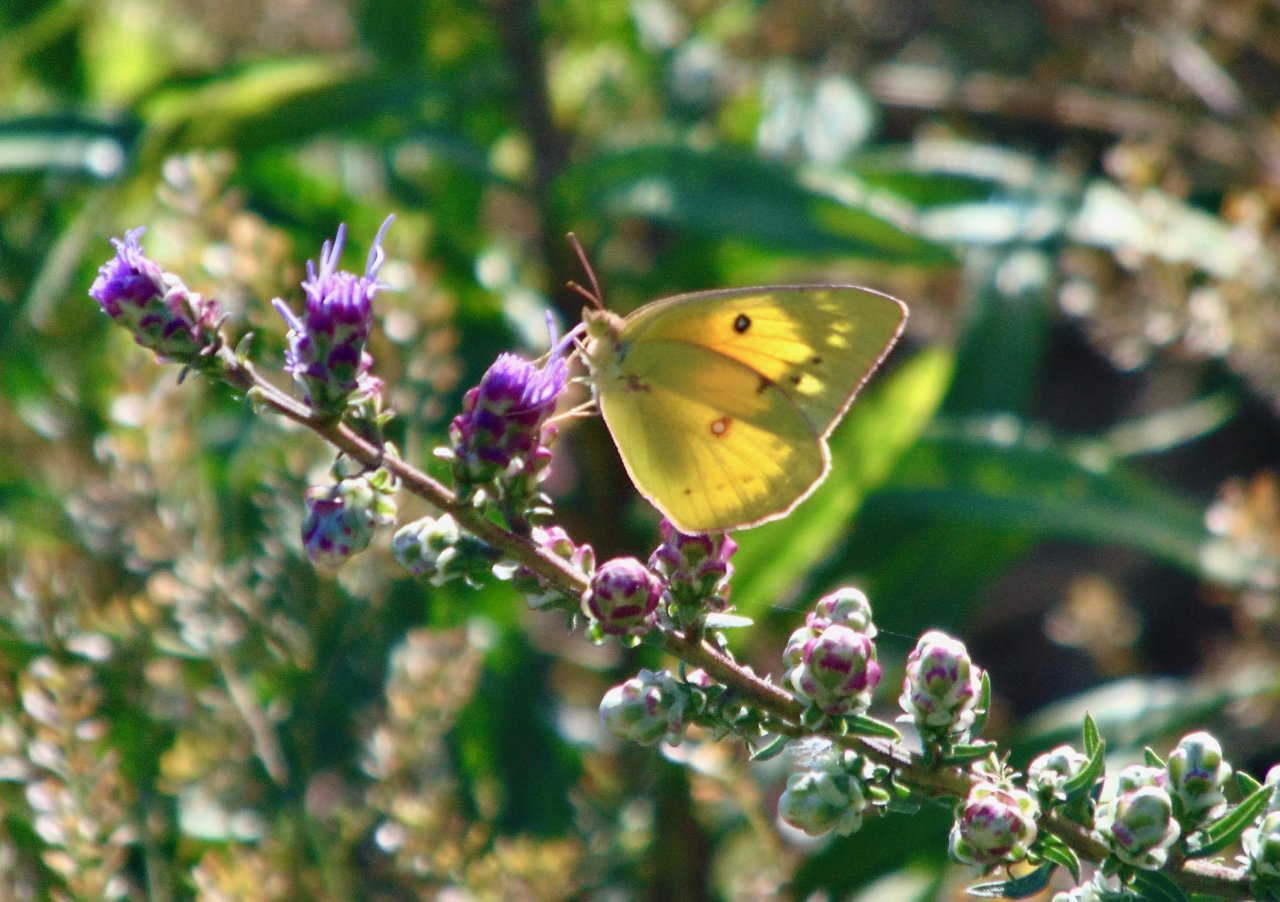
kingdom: Animalia
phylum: Arthropoda
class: Insecta
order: Lepidoptera
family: Pieridae
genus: Colias
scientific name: Colias eurytheme
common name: Orange Sulphur
